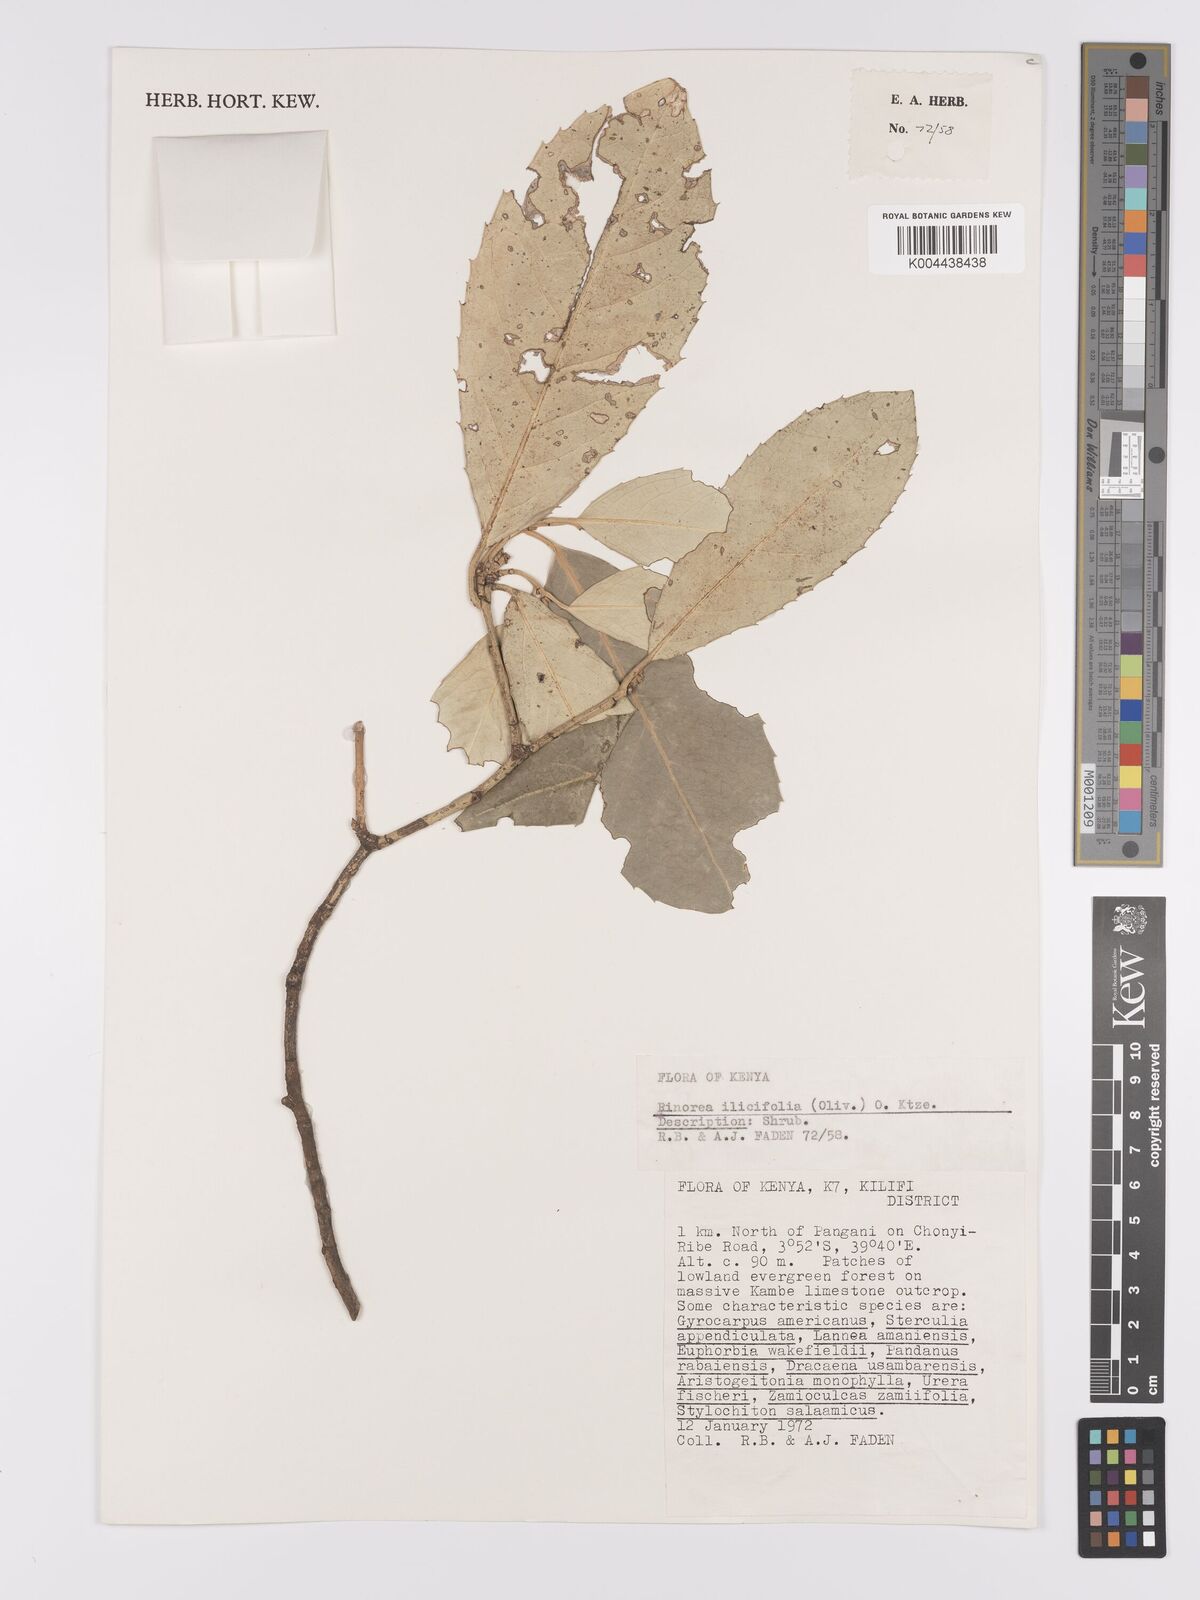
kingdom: Plantae
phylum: Tracheophyta
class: Magnoliopsida
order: Malpighiales
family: Violaceae
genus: Rinorea
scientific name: Rinorea ilicifolia
